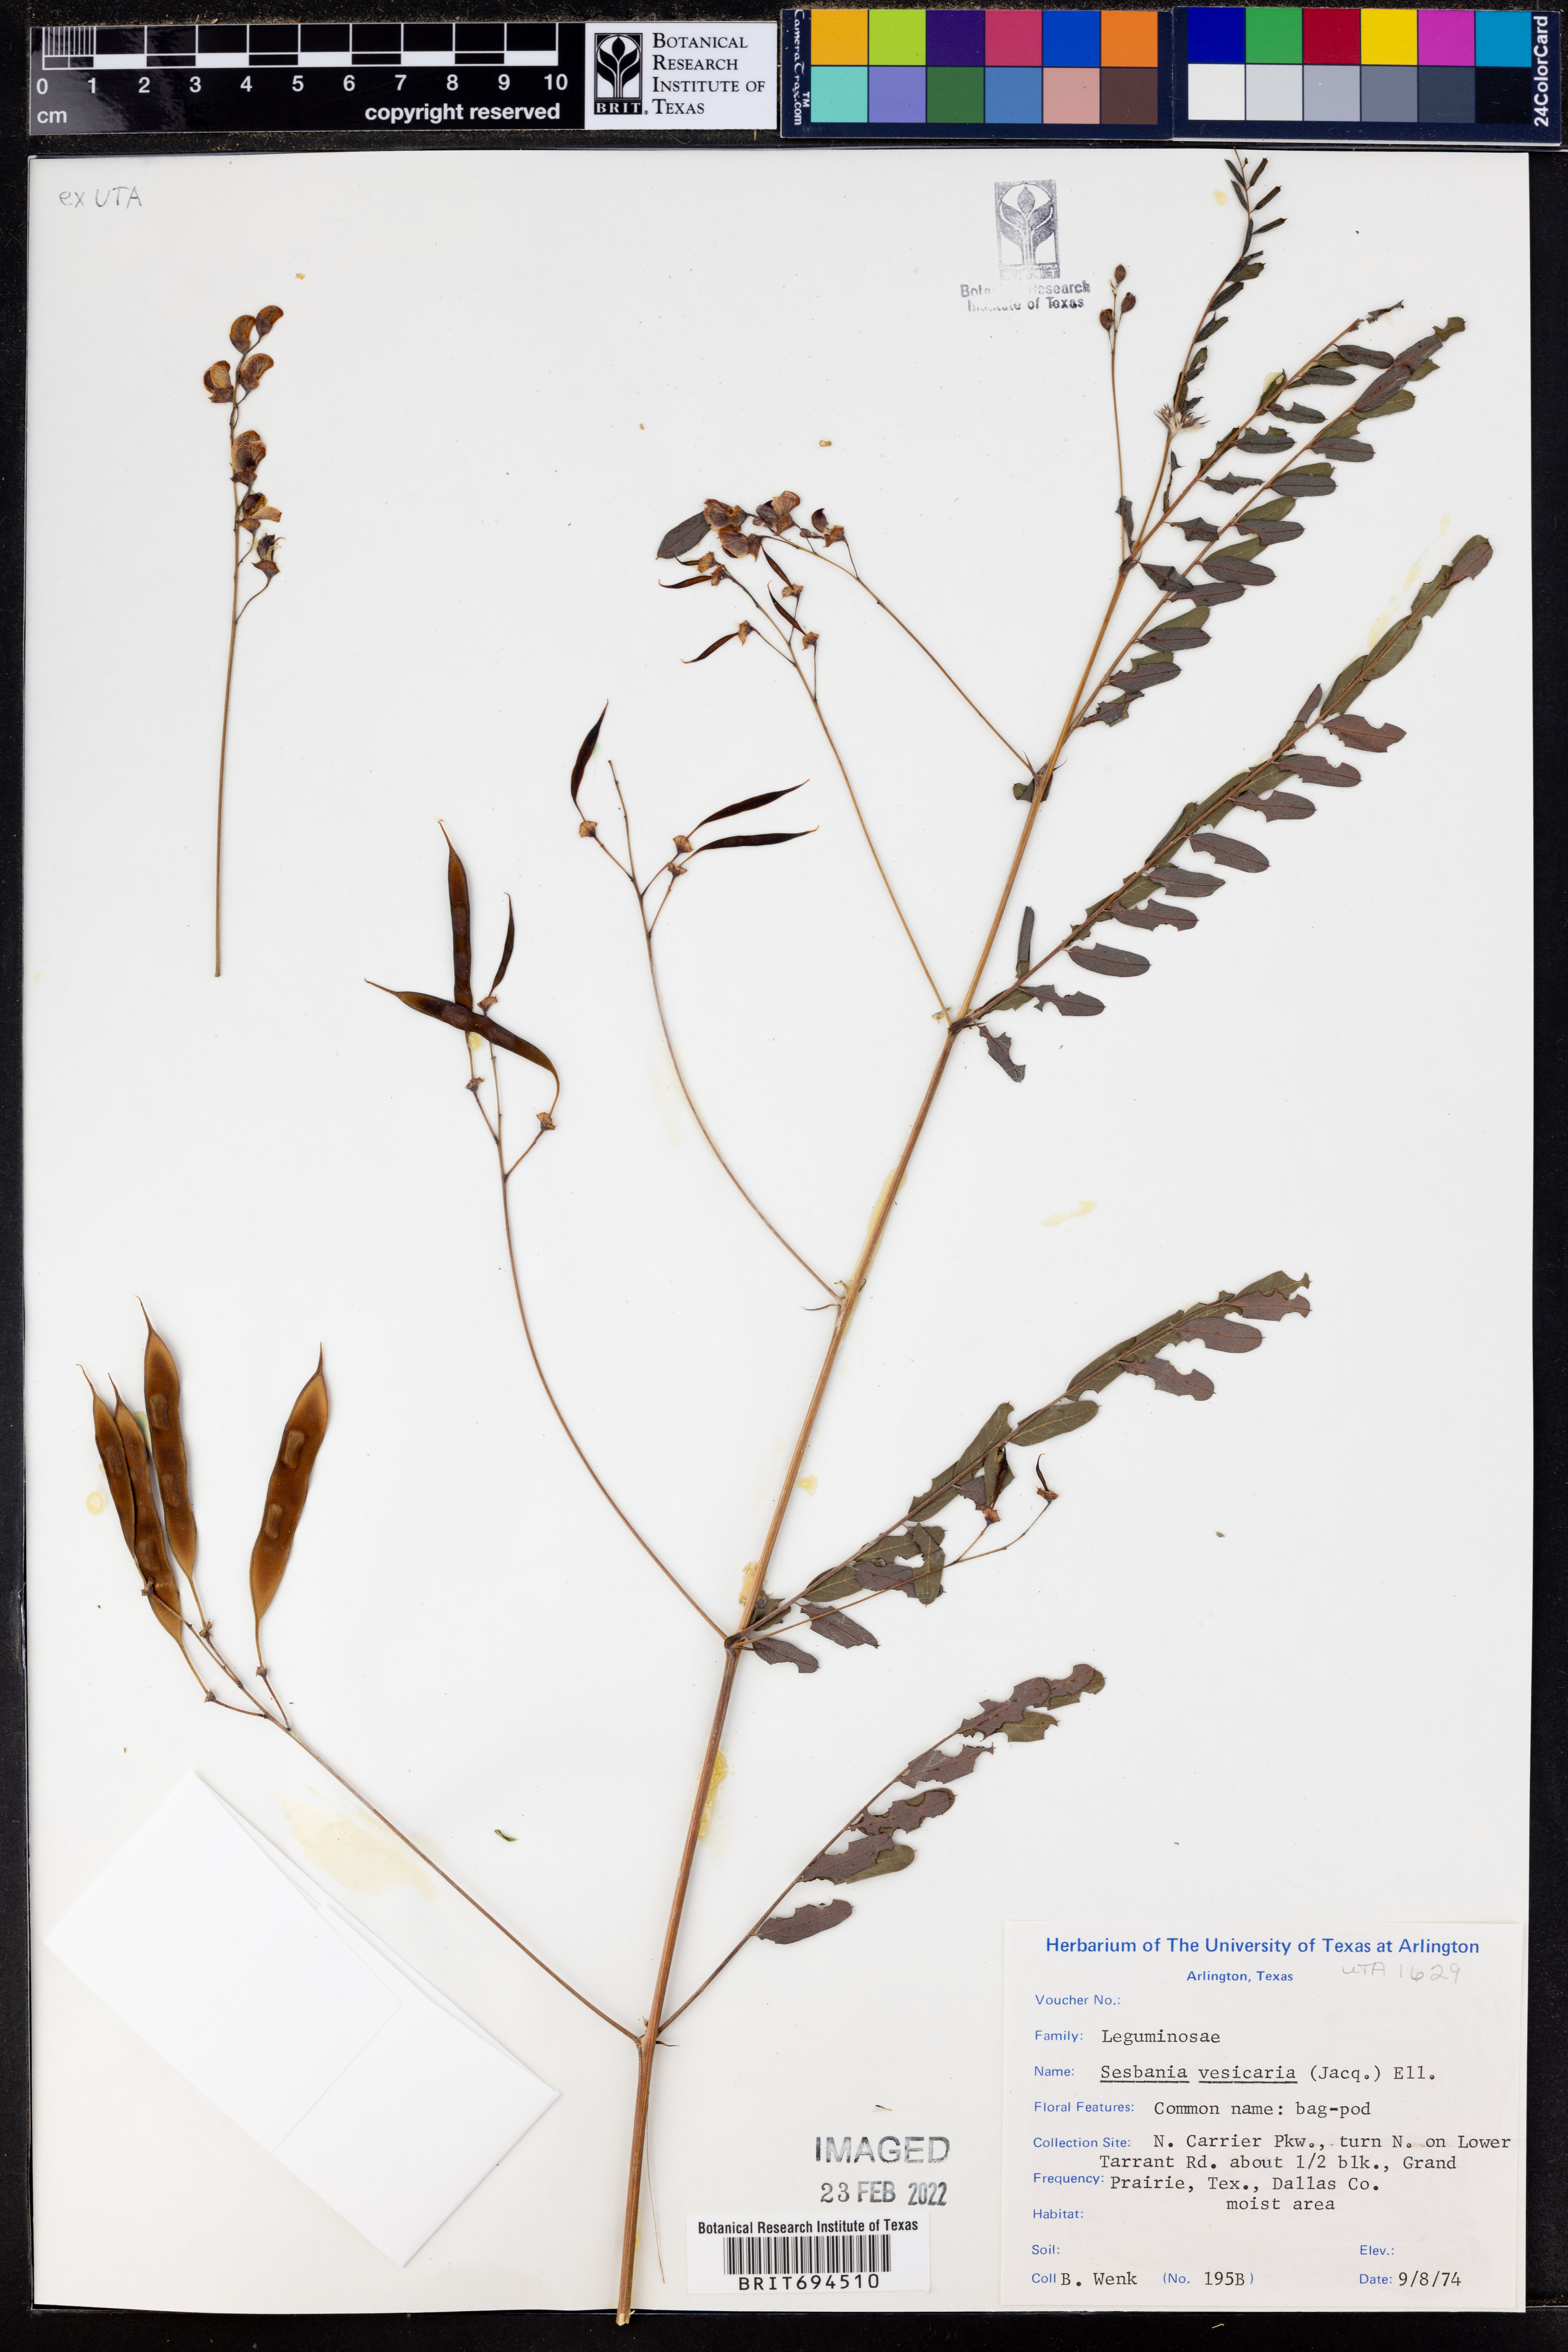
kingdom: Plantae
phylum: Tracheophyta
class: Magnoliopsida
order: Fabales
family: Fabaceae
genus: Sesbania
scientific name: Sesbania vesicaria
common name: Bagpod
